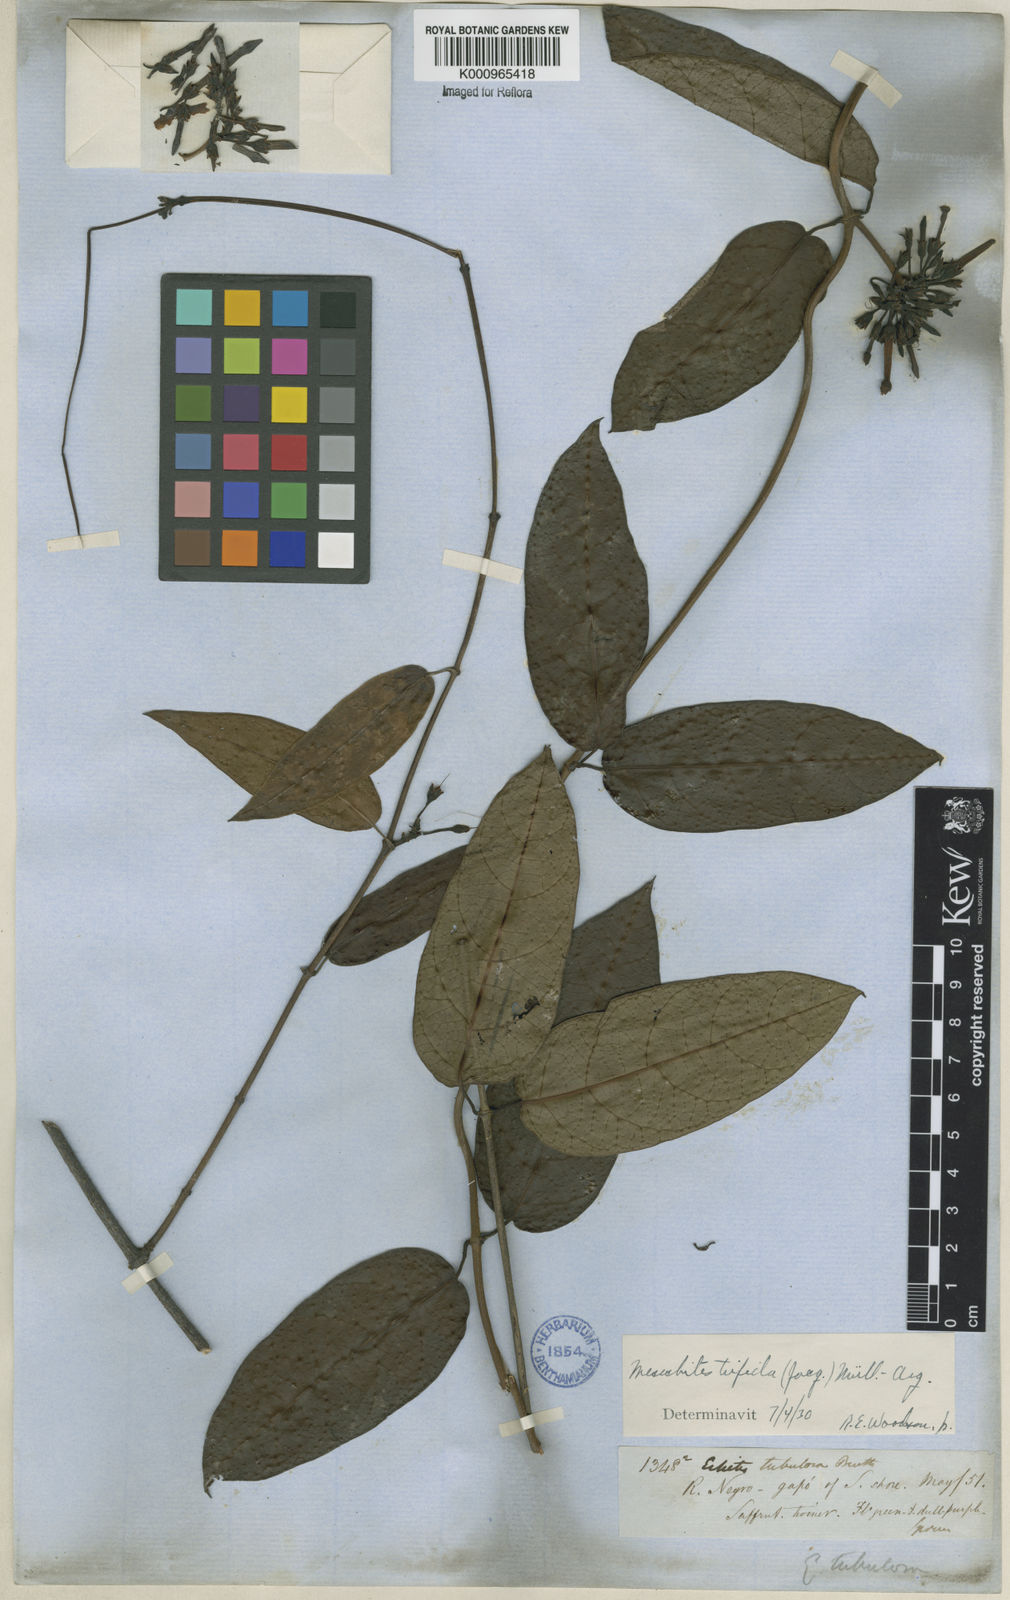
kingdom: Plantae
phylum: Tracheophyta
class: Magnoliopsida
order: Gentianales
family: Apocynaceae
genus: Mesechites
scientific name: Mesechites
